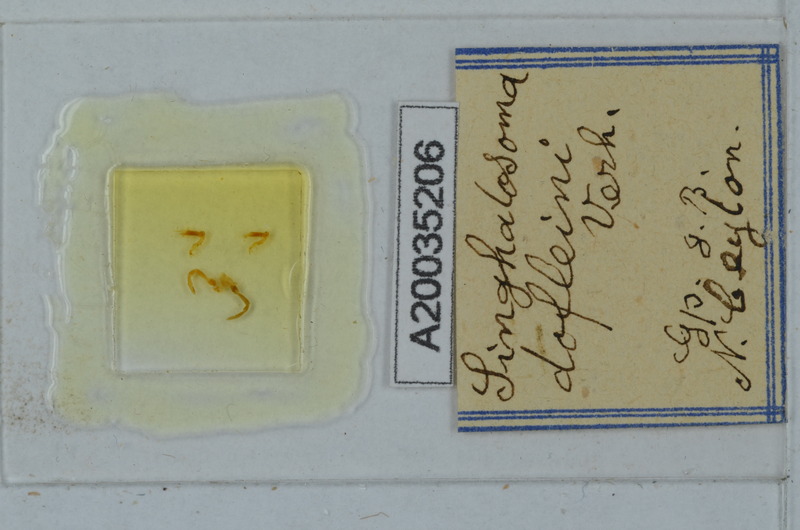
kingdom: Animalia
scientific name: Animalia
